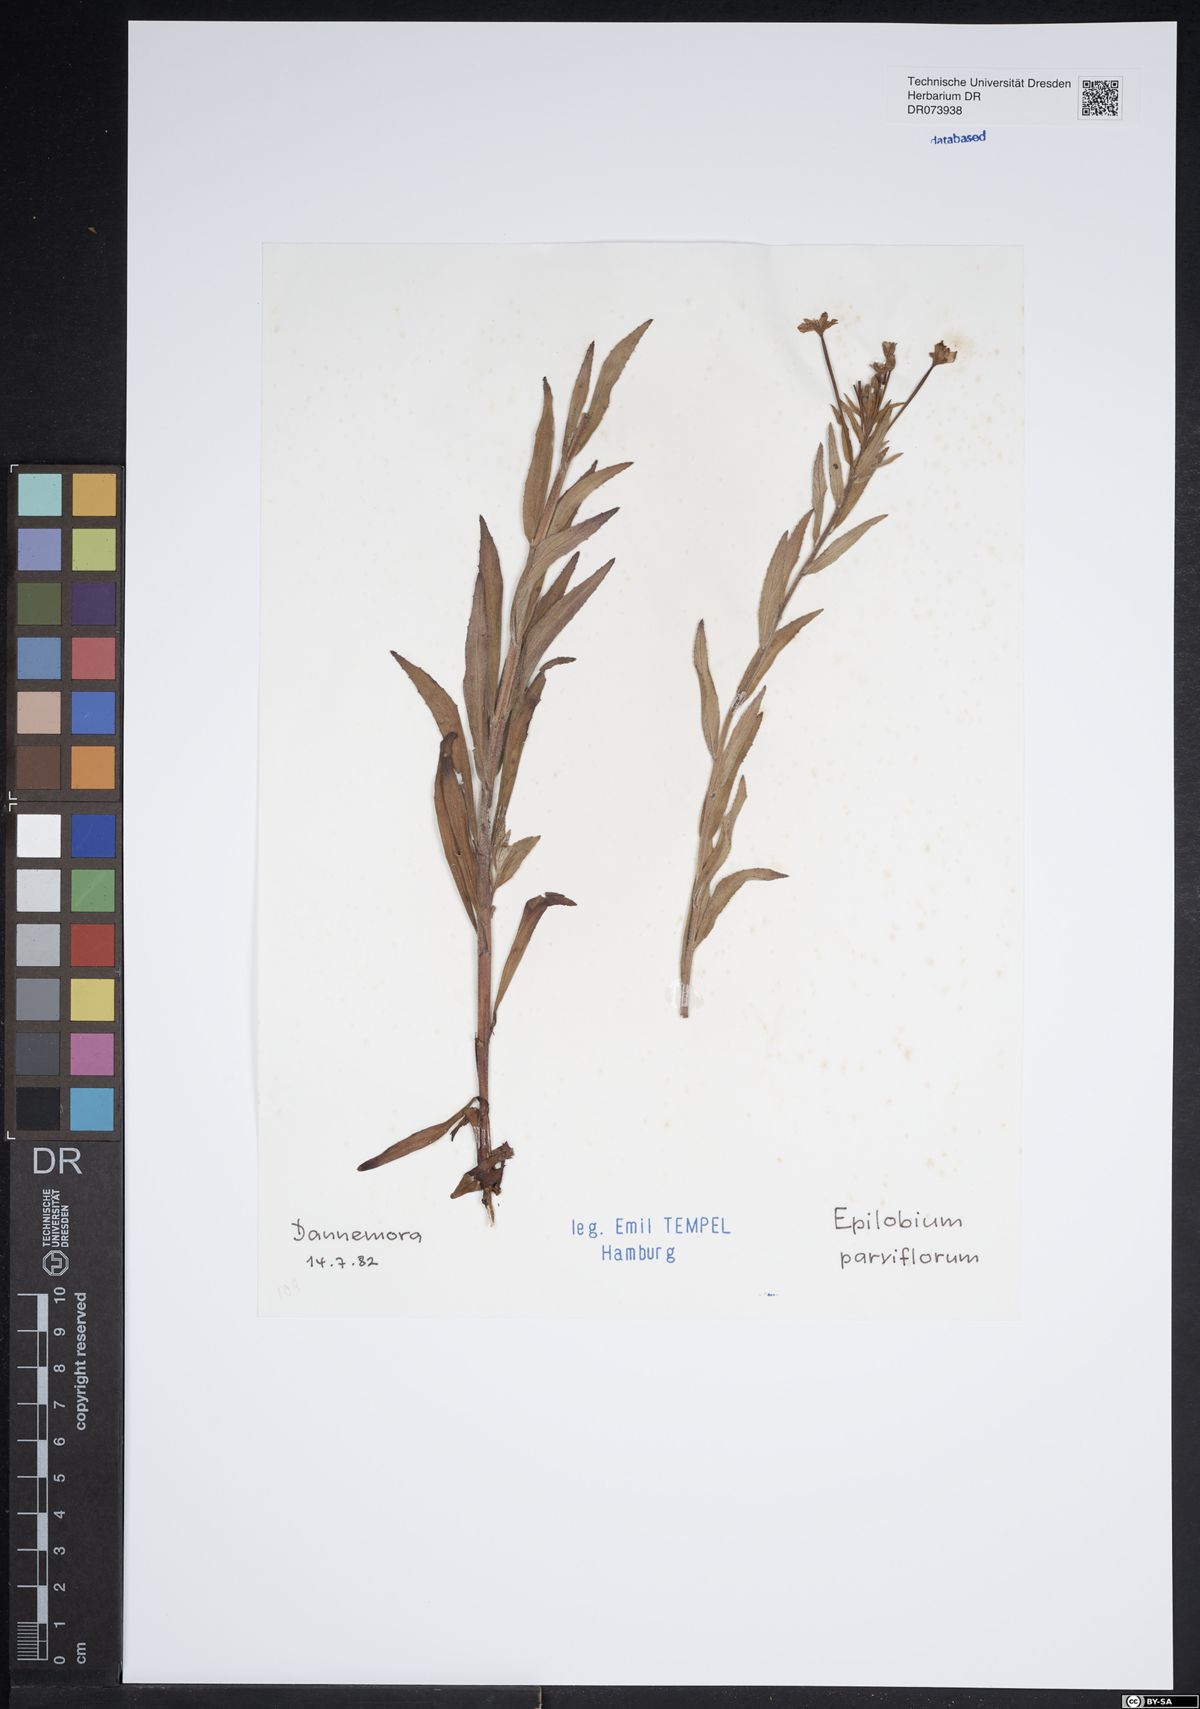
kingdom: Plantae
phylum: Tracheophyta
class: Magnoliopsida
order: Myrtales
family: Onagraceae
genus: Epilobium
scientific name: Epilobium parviflorum
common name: Hoary willowherb
